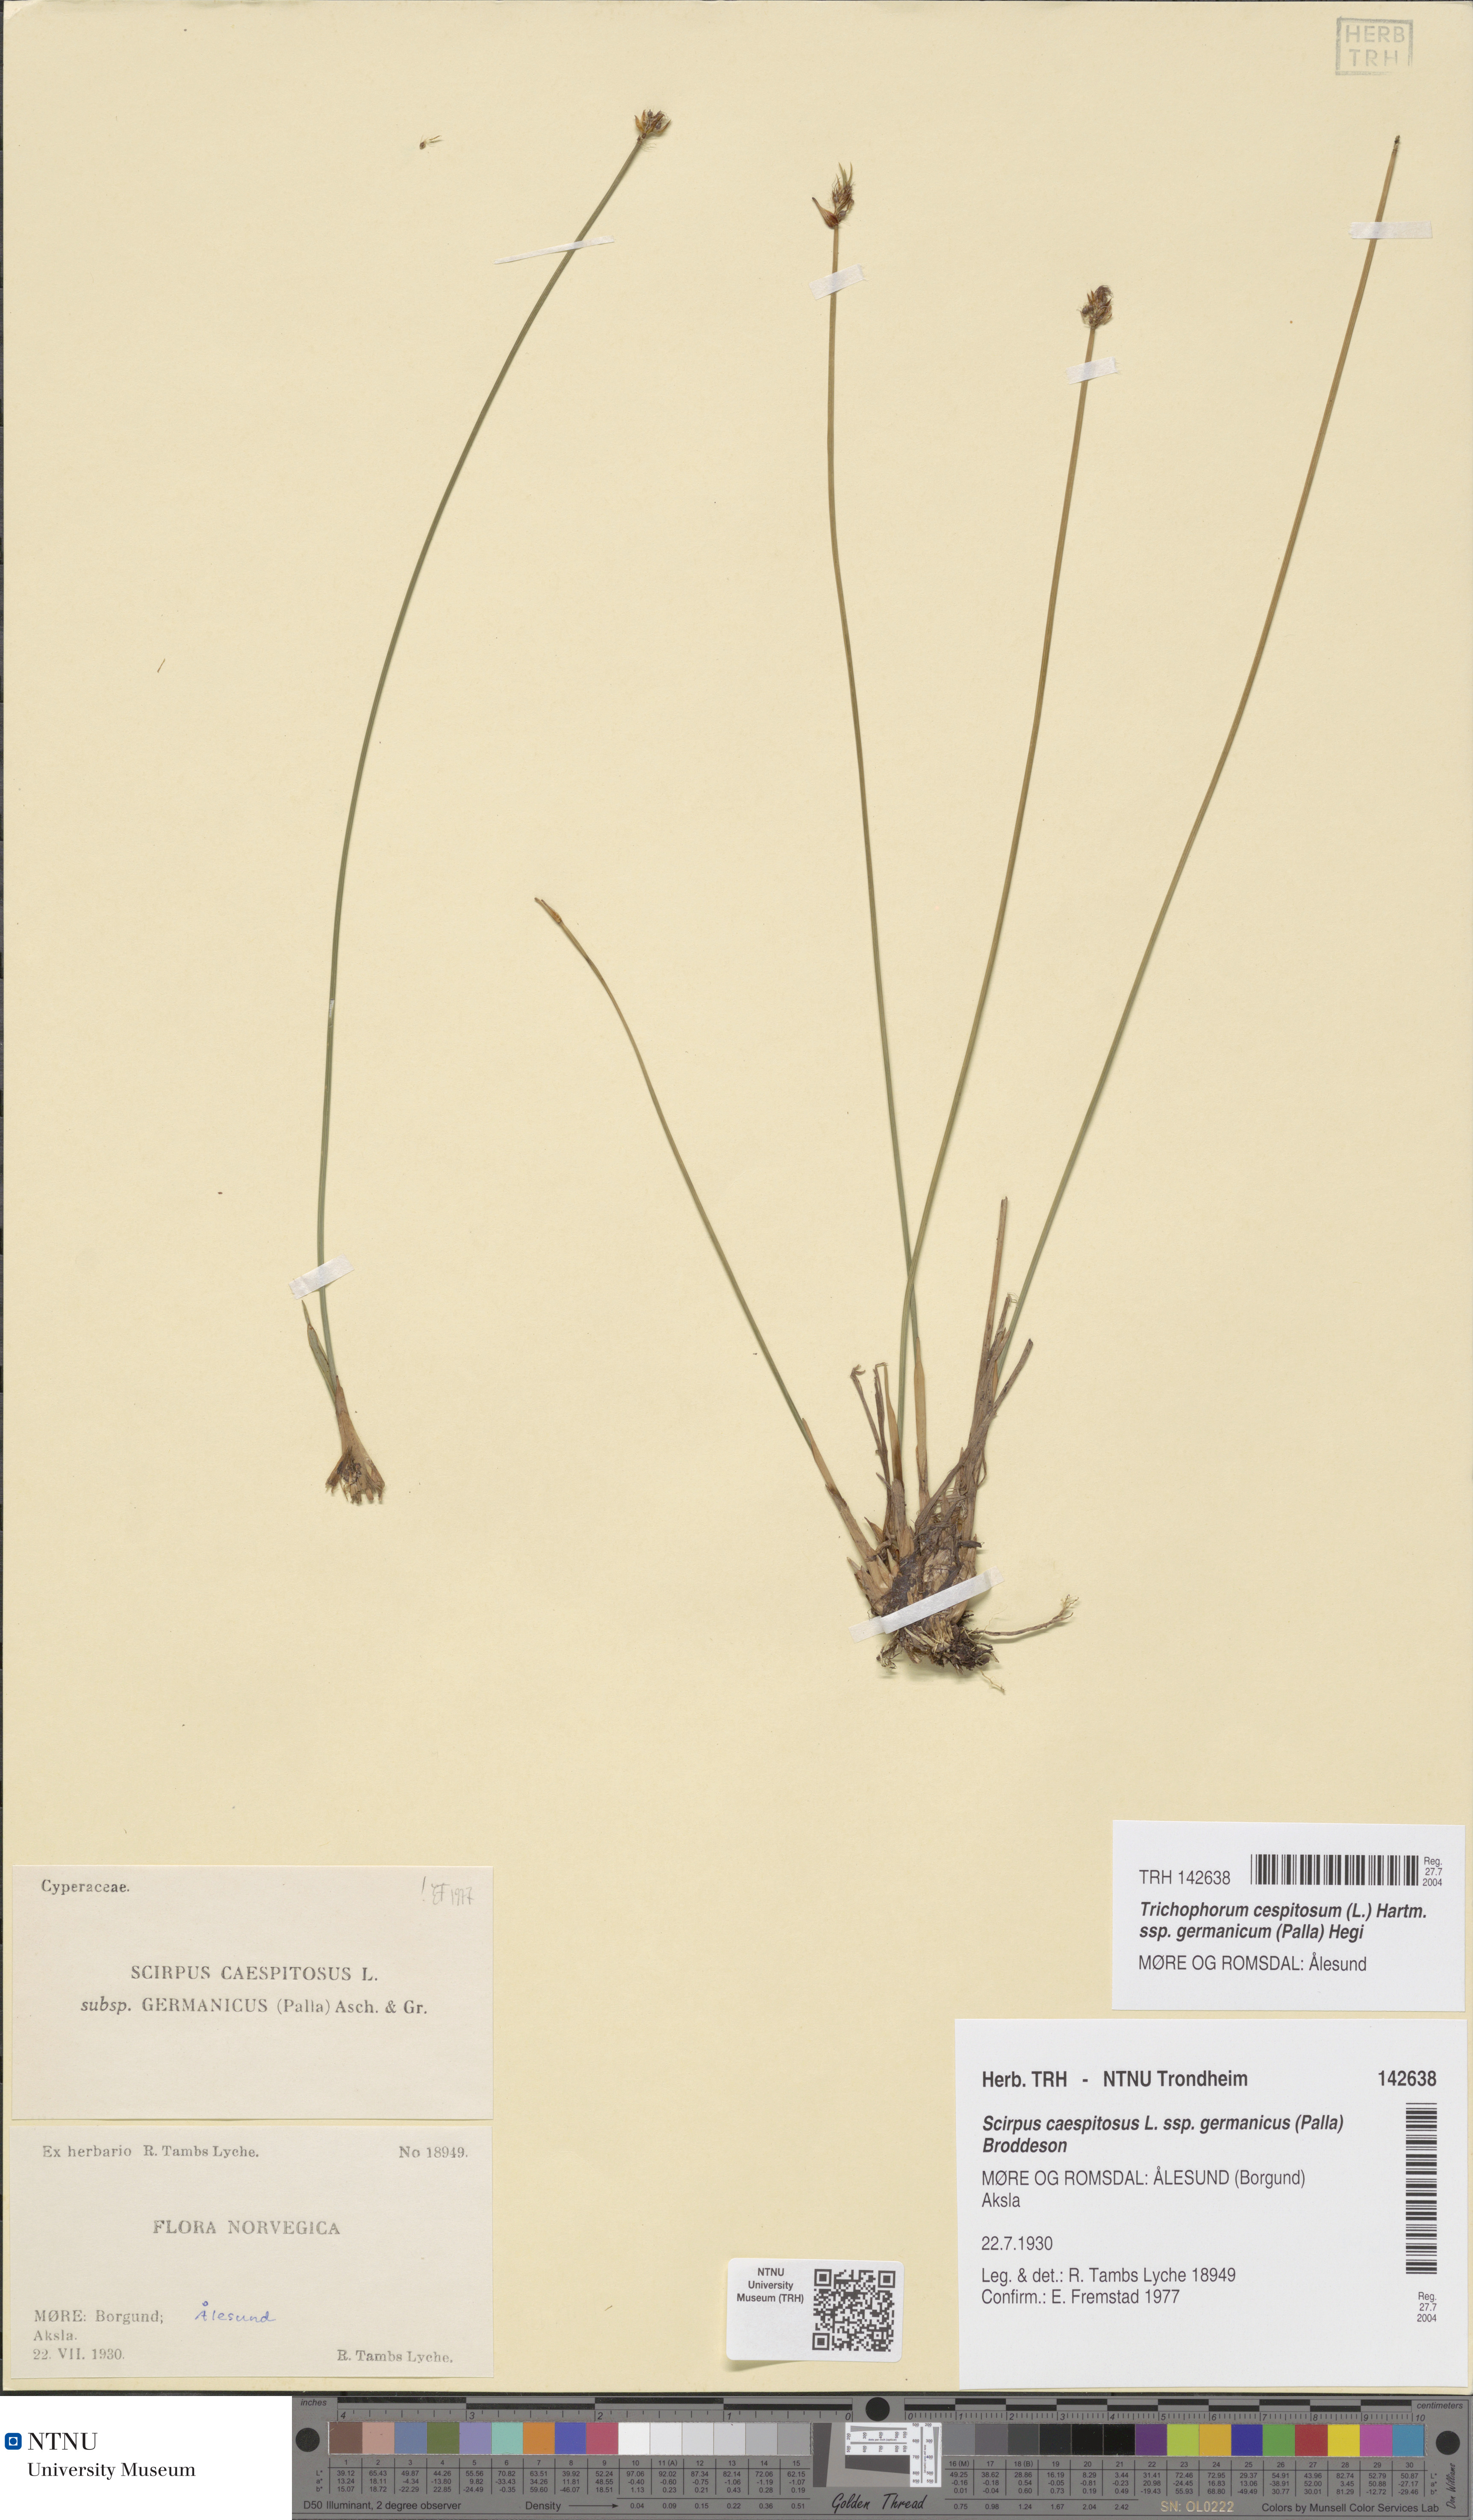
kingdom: Plantae
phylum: Tracheophyta
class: Liliopsida
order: Poales
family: Cyperaceae
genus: Trichophorum
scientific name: Trichophorum cespitosum
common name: Cespitose bulrush
